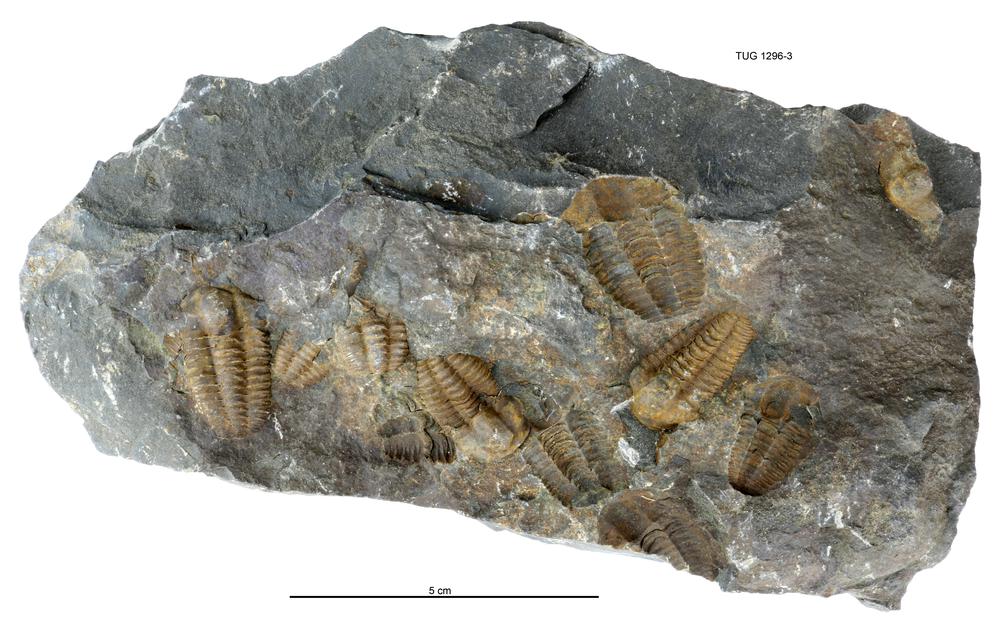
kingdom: Animalia
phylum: Arthropoda
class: Trilobita
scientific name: Trilobita
